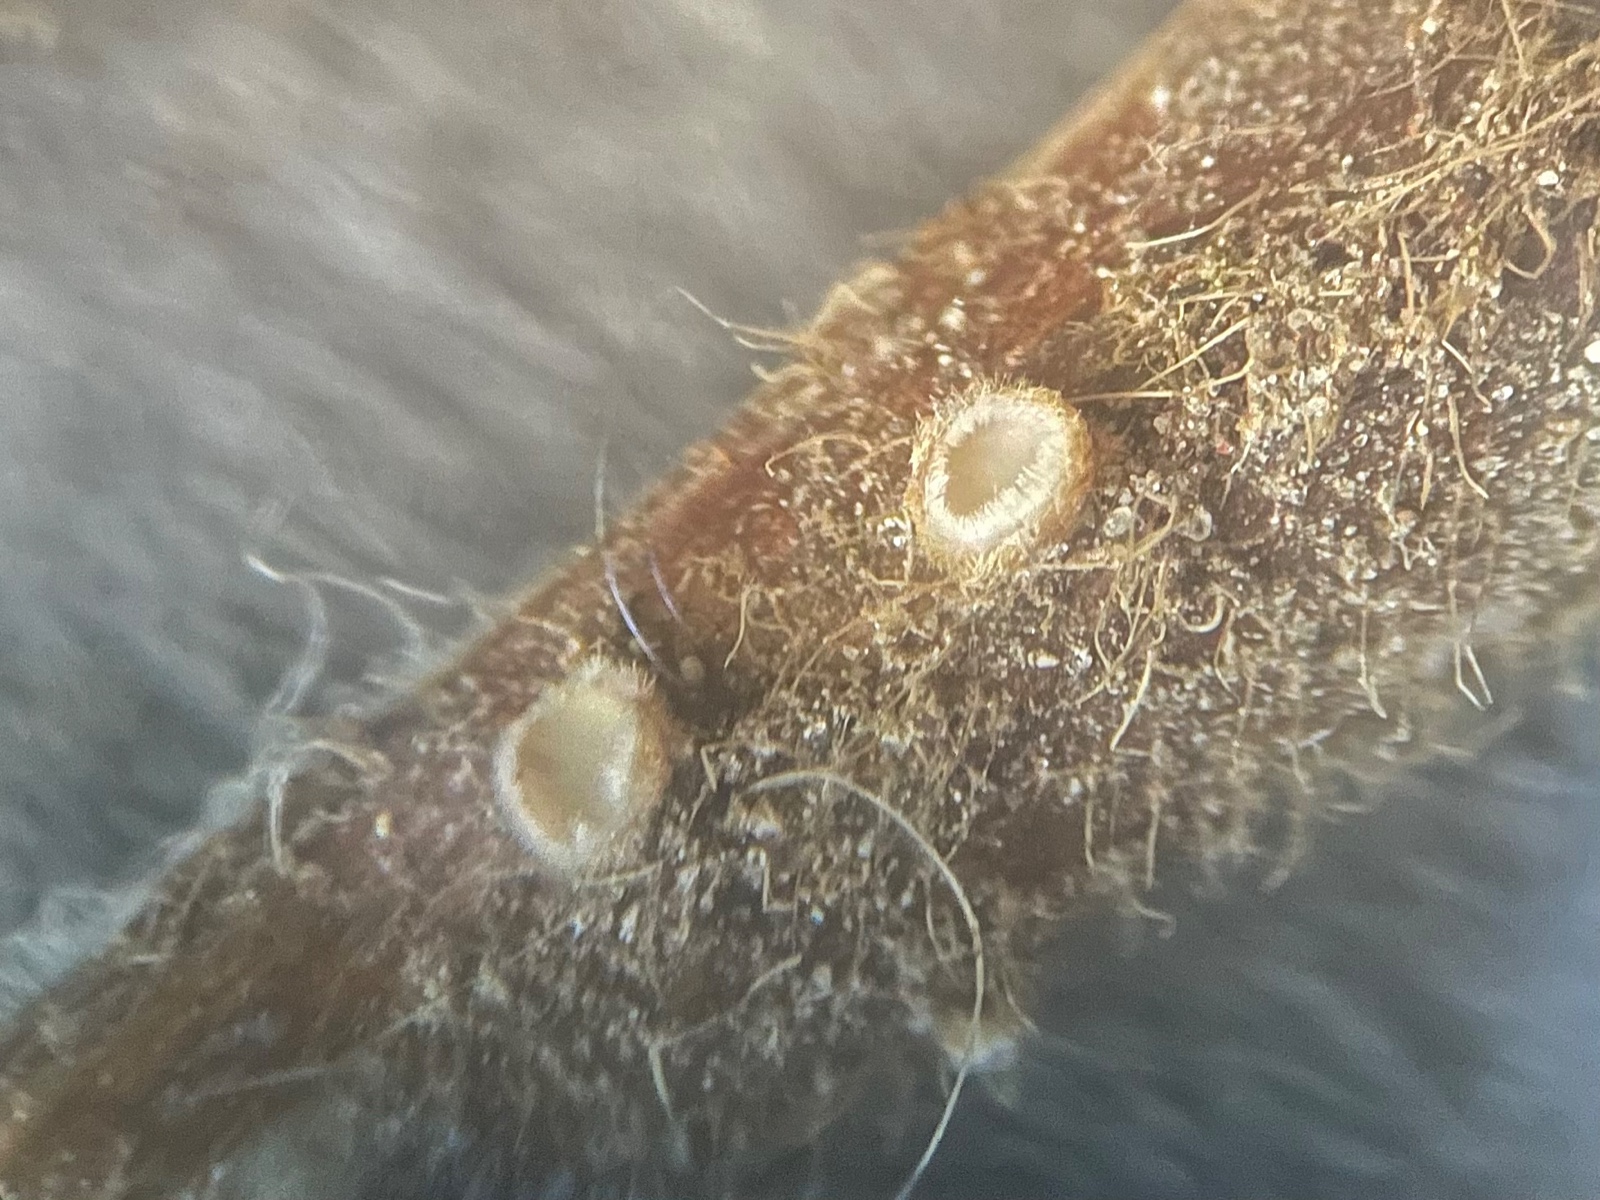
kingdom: Fungi
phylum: Ascomycota
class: Leotiomycetes
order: Helotiales
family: Lachnaceae
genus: Lachnum
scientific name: Lachnum mollissimum
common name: smuk frynseskive
